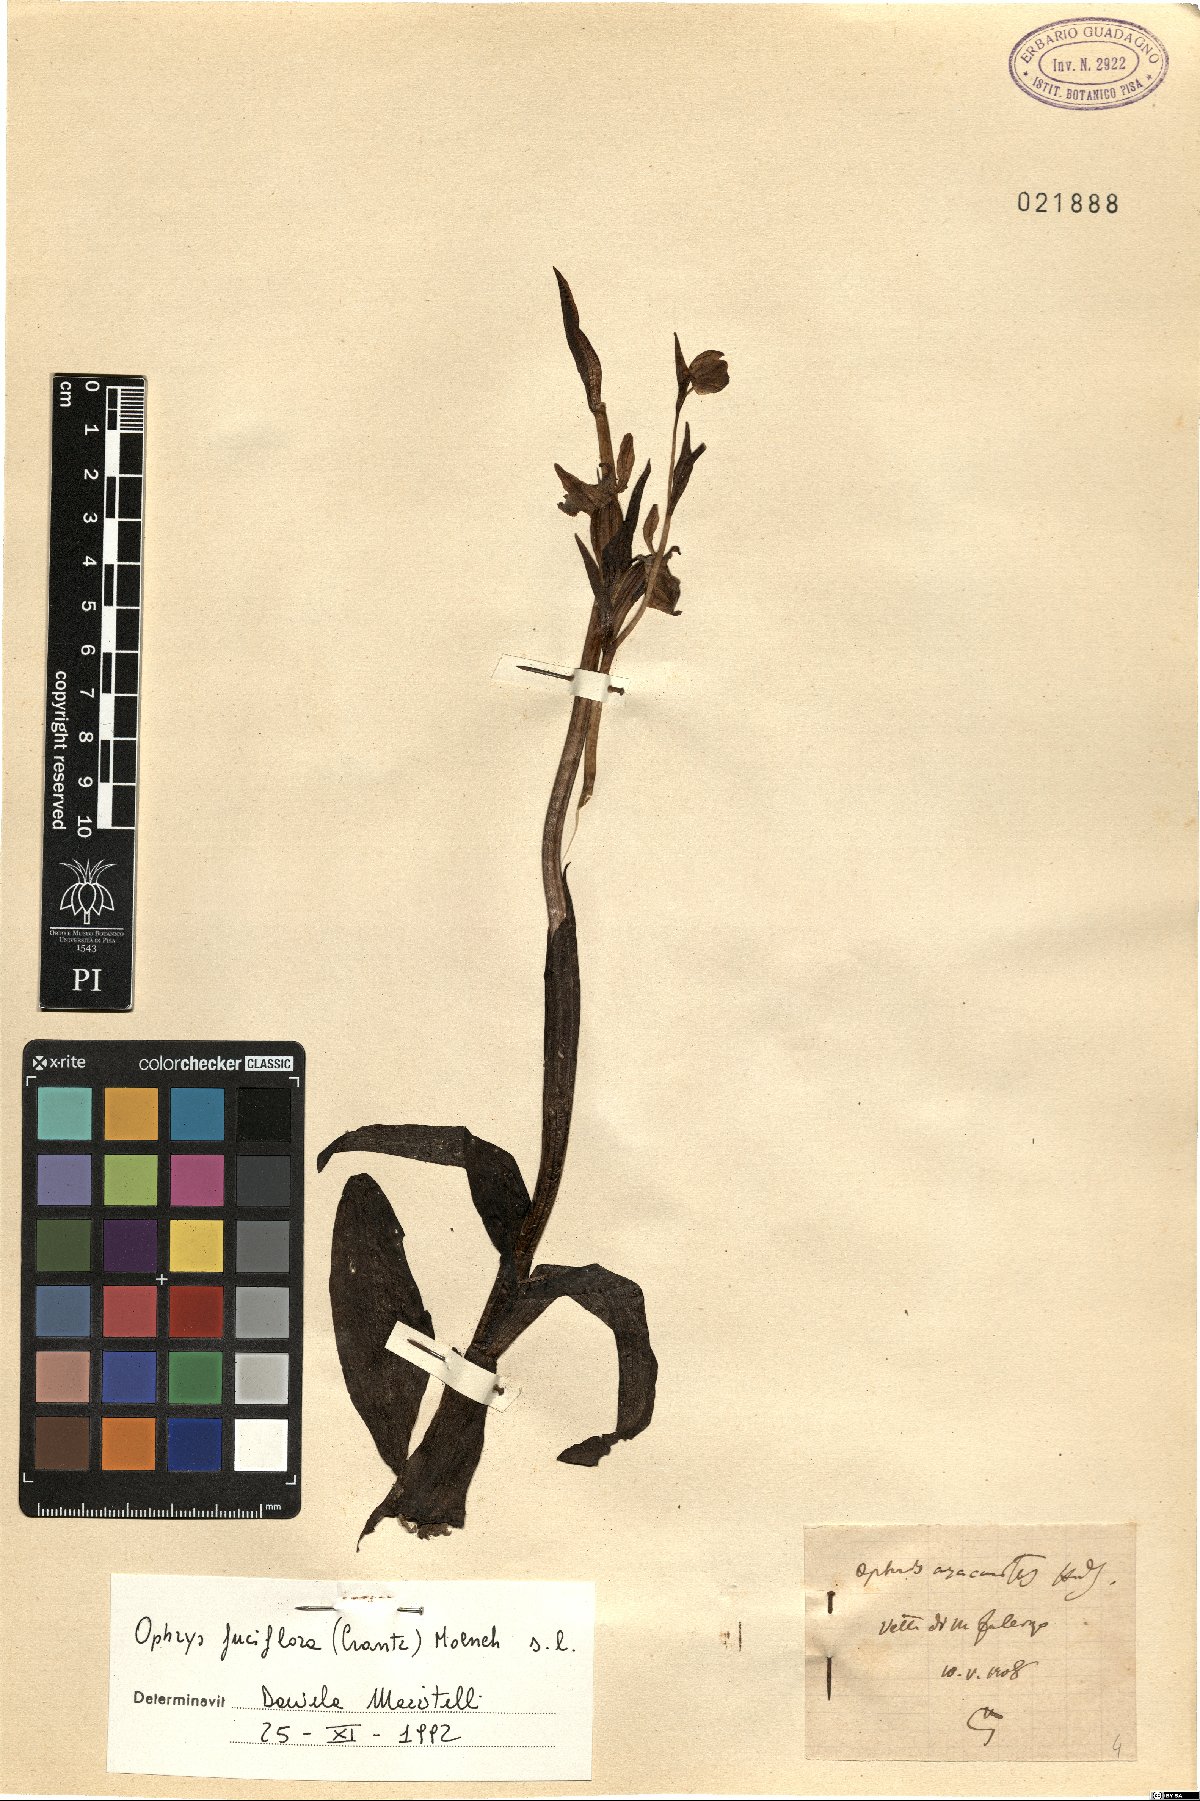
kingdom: Plantae
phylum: Tracheophyta
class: Liliopsida
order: Asparagales
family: Orchidaceae
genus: Ophrys
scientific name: Ophrys holosericea
